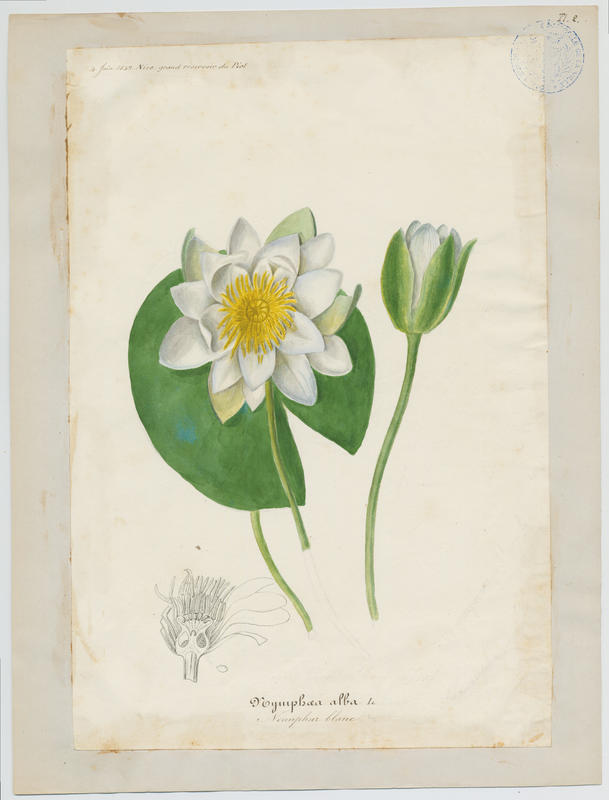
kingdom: Plantae
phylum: Tracheophyta
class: Magnoliopsida
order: Nymphaeales
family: Nymphaeaceae
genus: Nymphaea
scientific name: Nymphaea alba
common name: White water-lily
